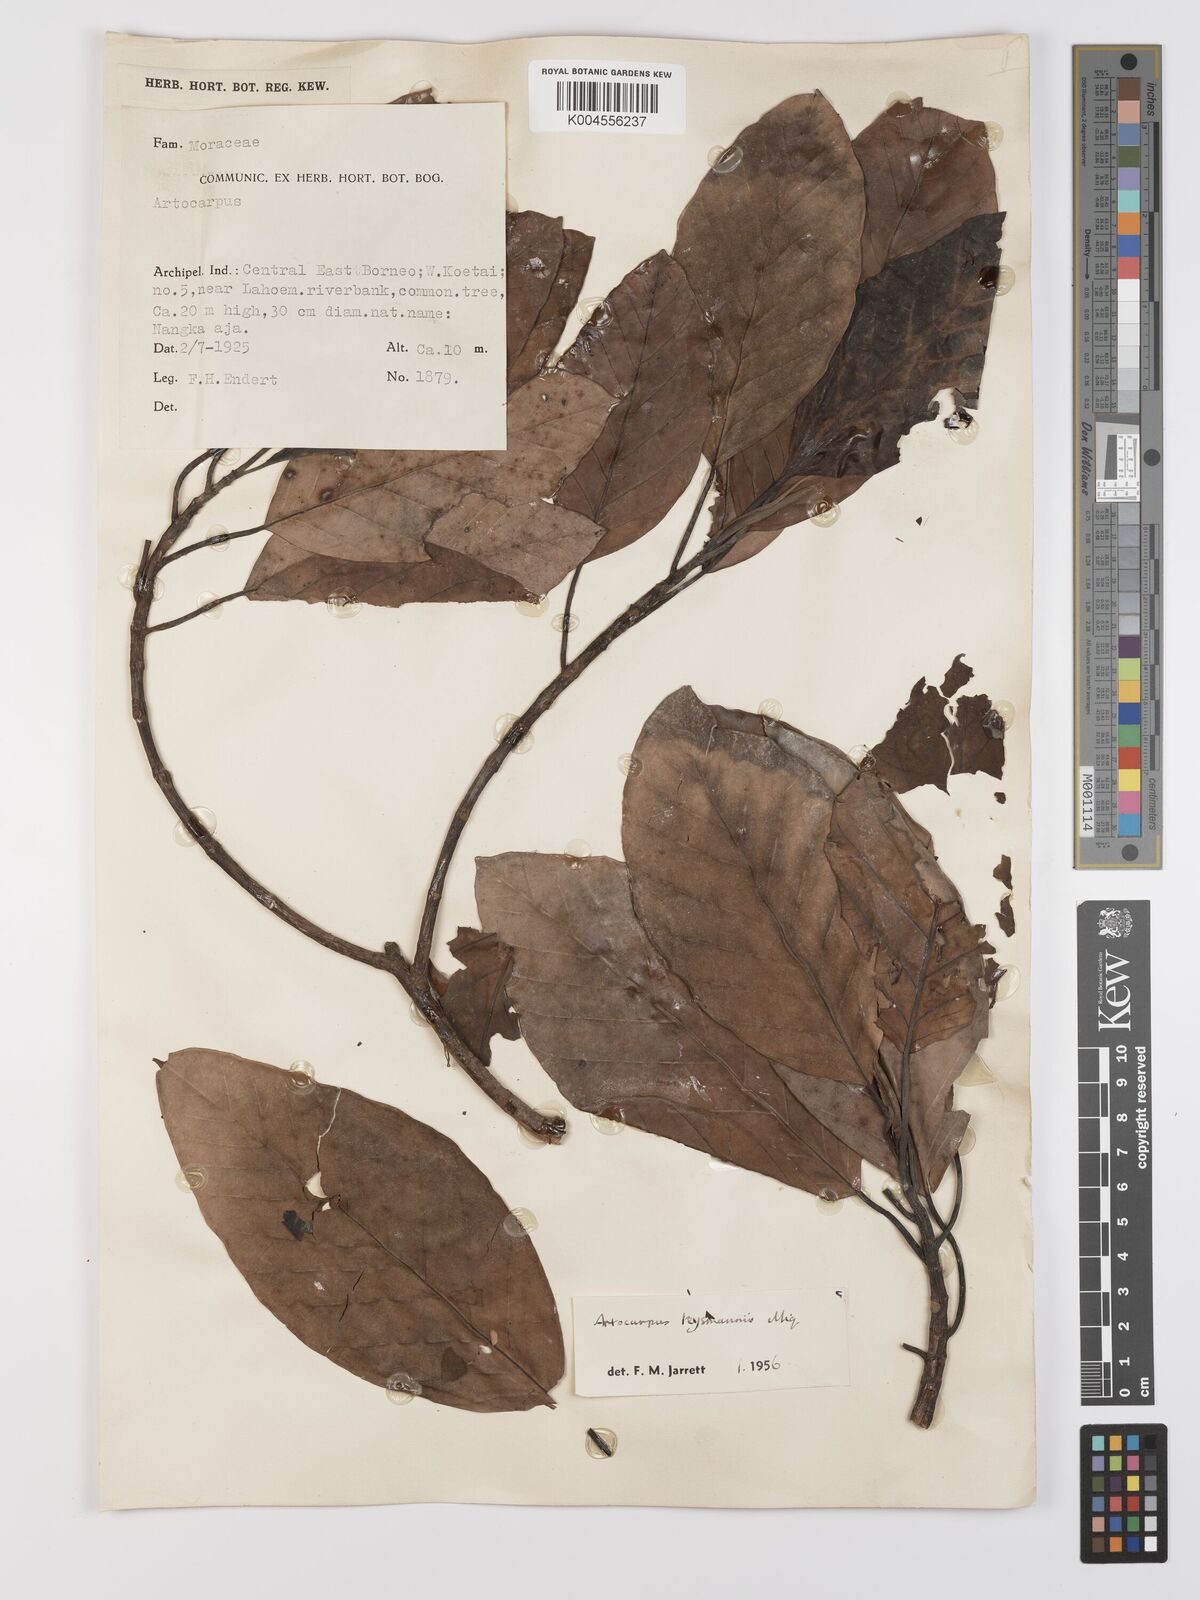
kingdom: Plantae
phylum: Tracheophyta
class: Magnoliopsida
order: Rosales
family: Moraceae
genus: Artocarpus
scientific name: Artocarpus teysmannii
